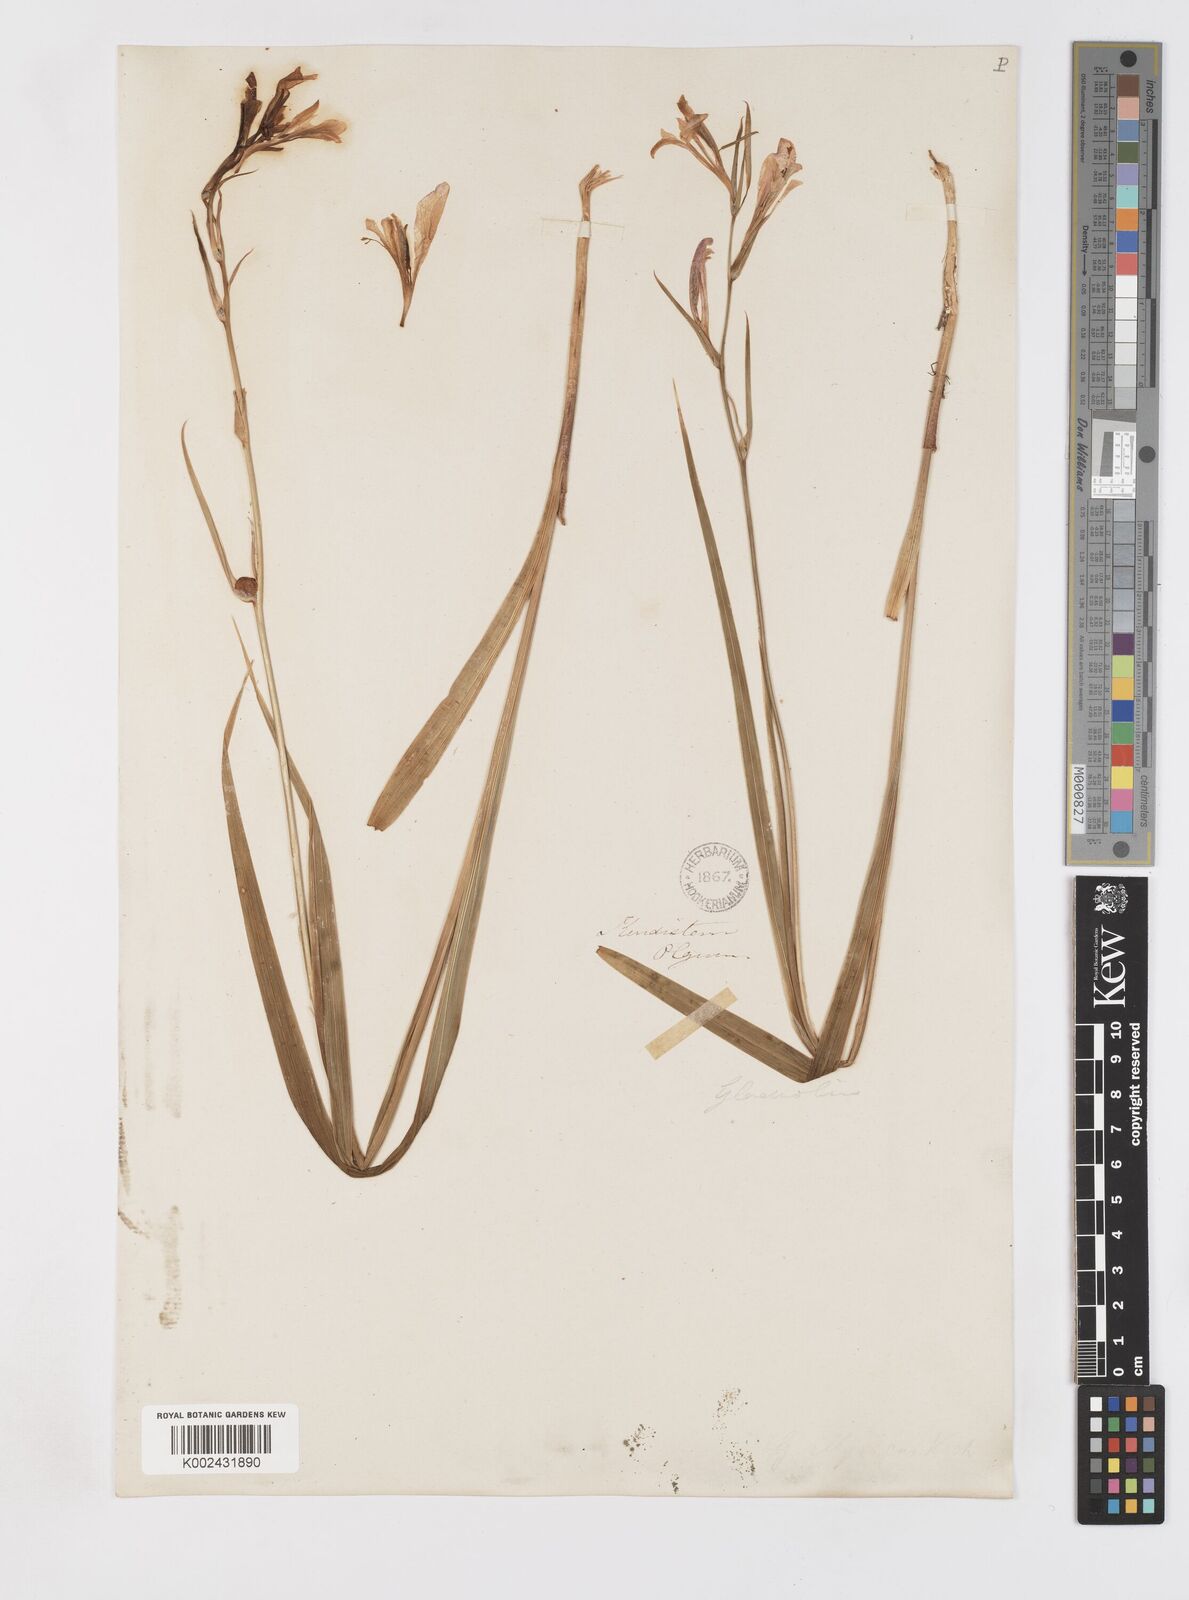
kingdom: Plantae
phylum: Tracheophyta
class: Liliopsida
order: Asparagales
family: Iridaceae
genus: Gladiolus
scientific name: Gladiolus italicus
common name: Field gladiolus
